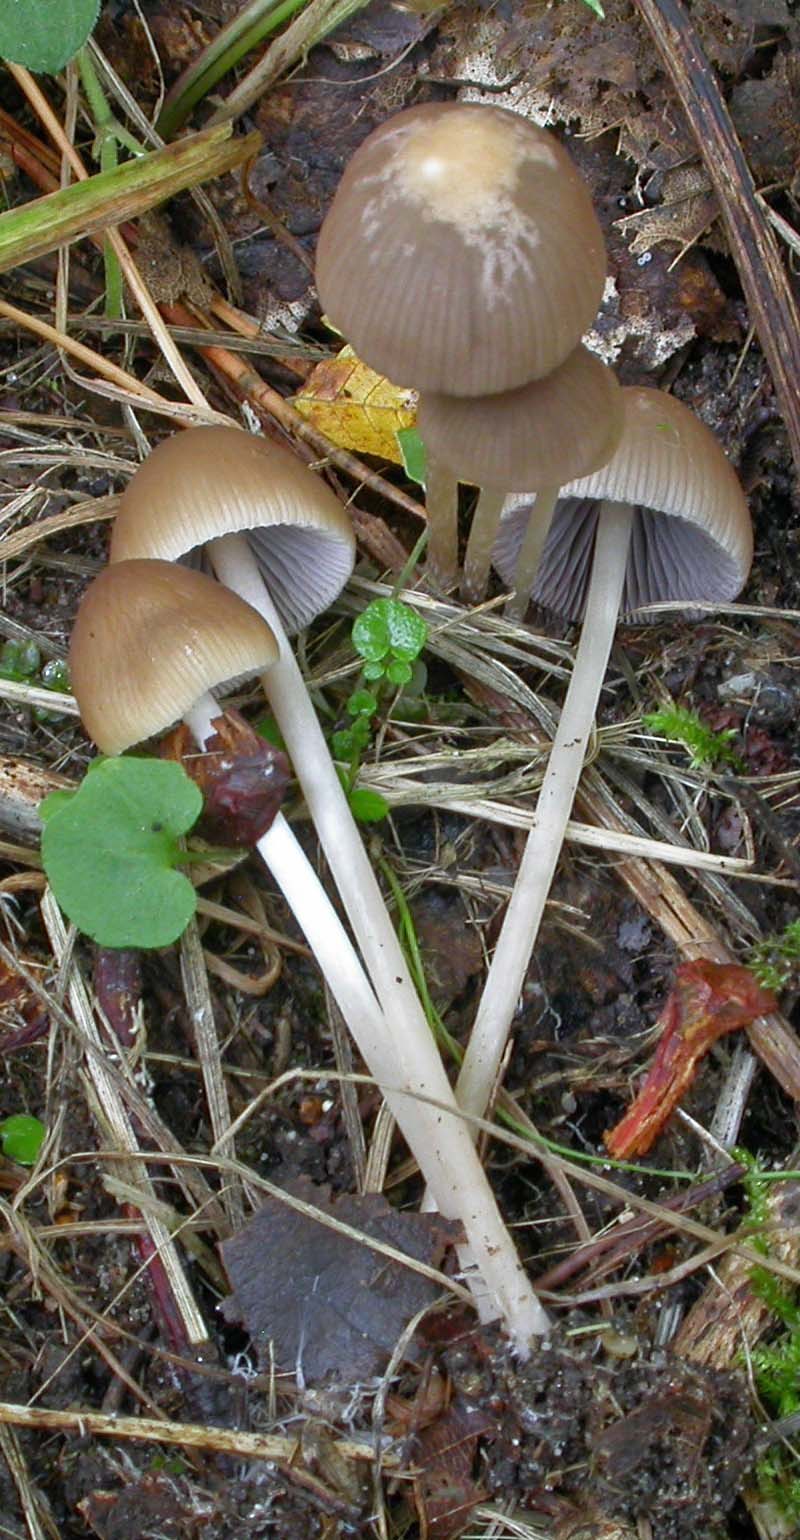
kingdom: Fungi
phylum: Basidiomycota
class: Agaricomycetes
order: Agaricales
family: Psathyrellaceae
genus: Psathyrella
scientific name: Psathyrella corrugis
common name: rødægget mørkhat
